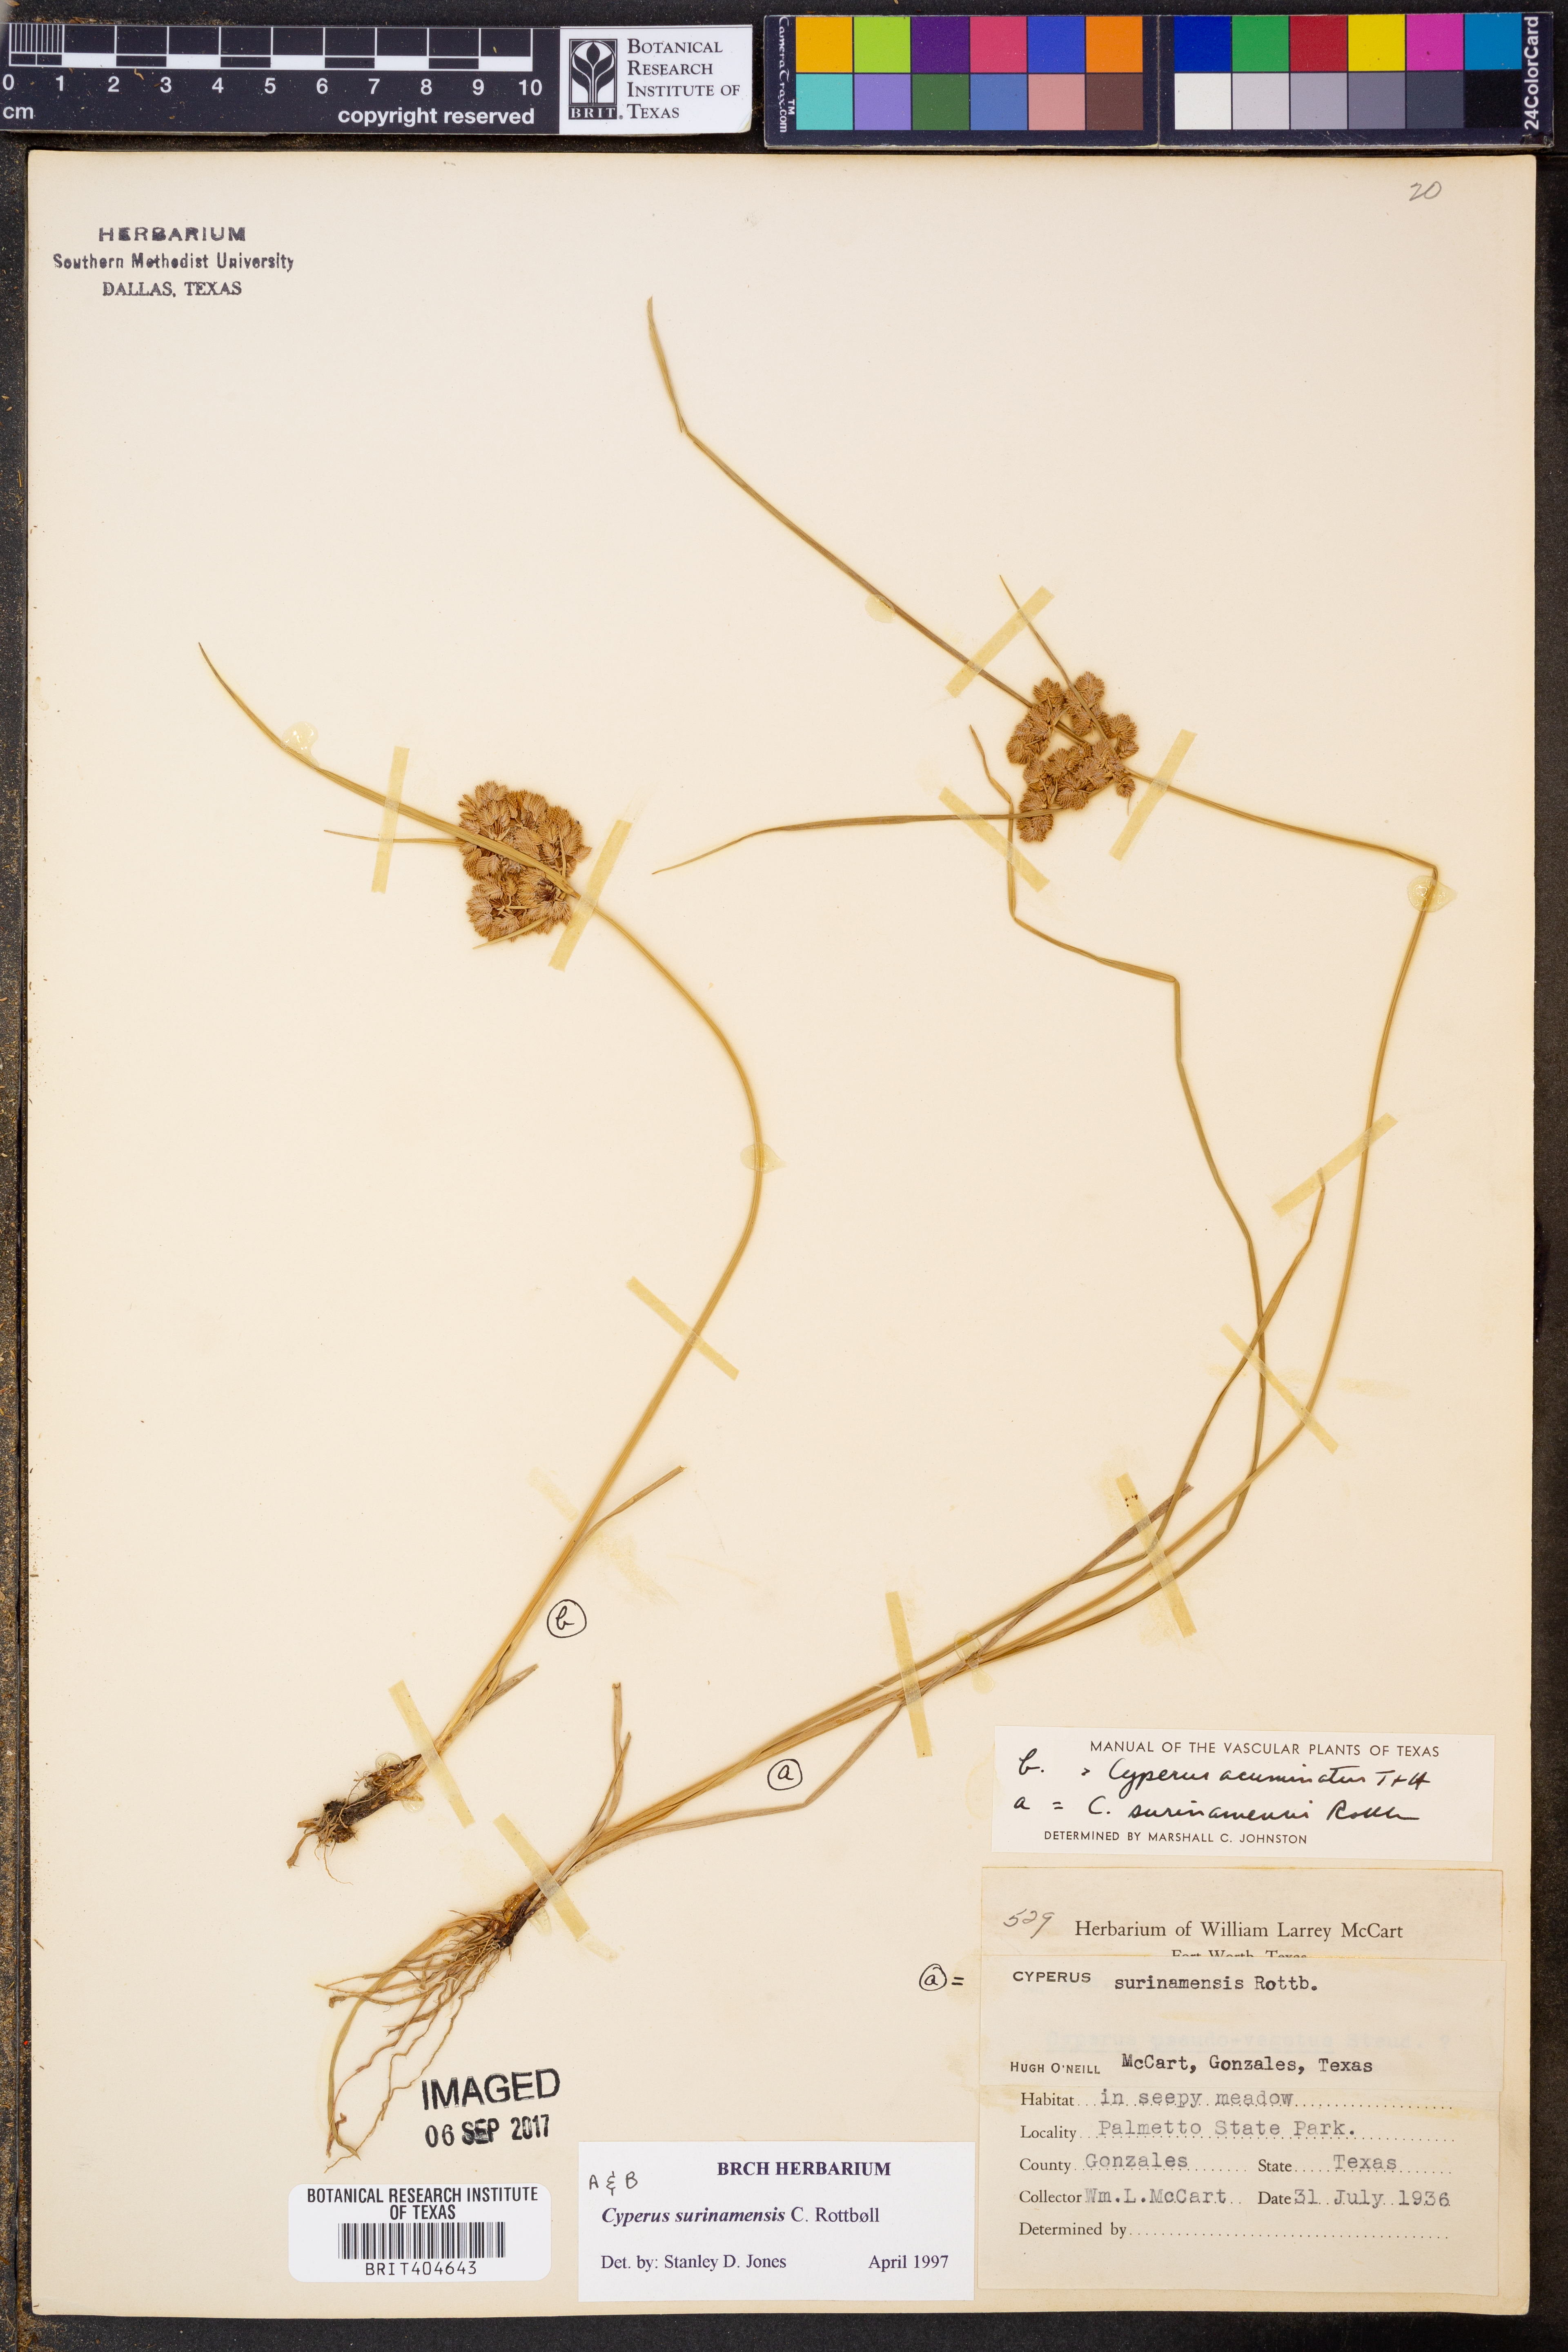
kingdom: Plantae
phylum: Tracheophyta
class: Liliopsida
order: Poales
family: Cyperaceae
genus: Cyperus
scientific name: Cyperus surinamensis
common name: Tropical flat sedge
